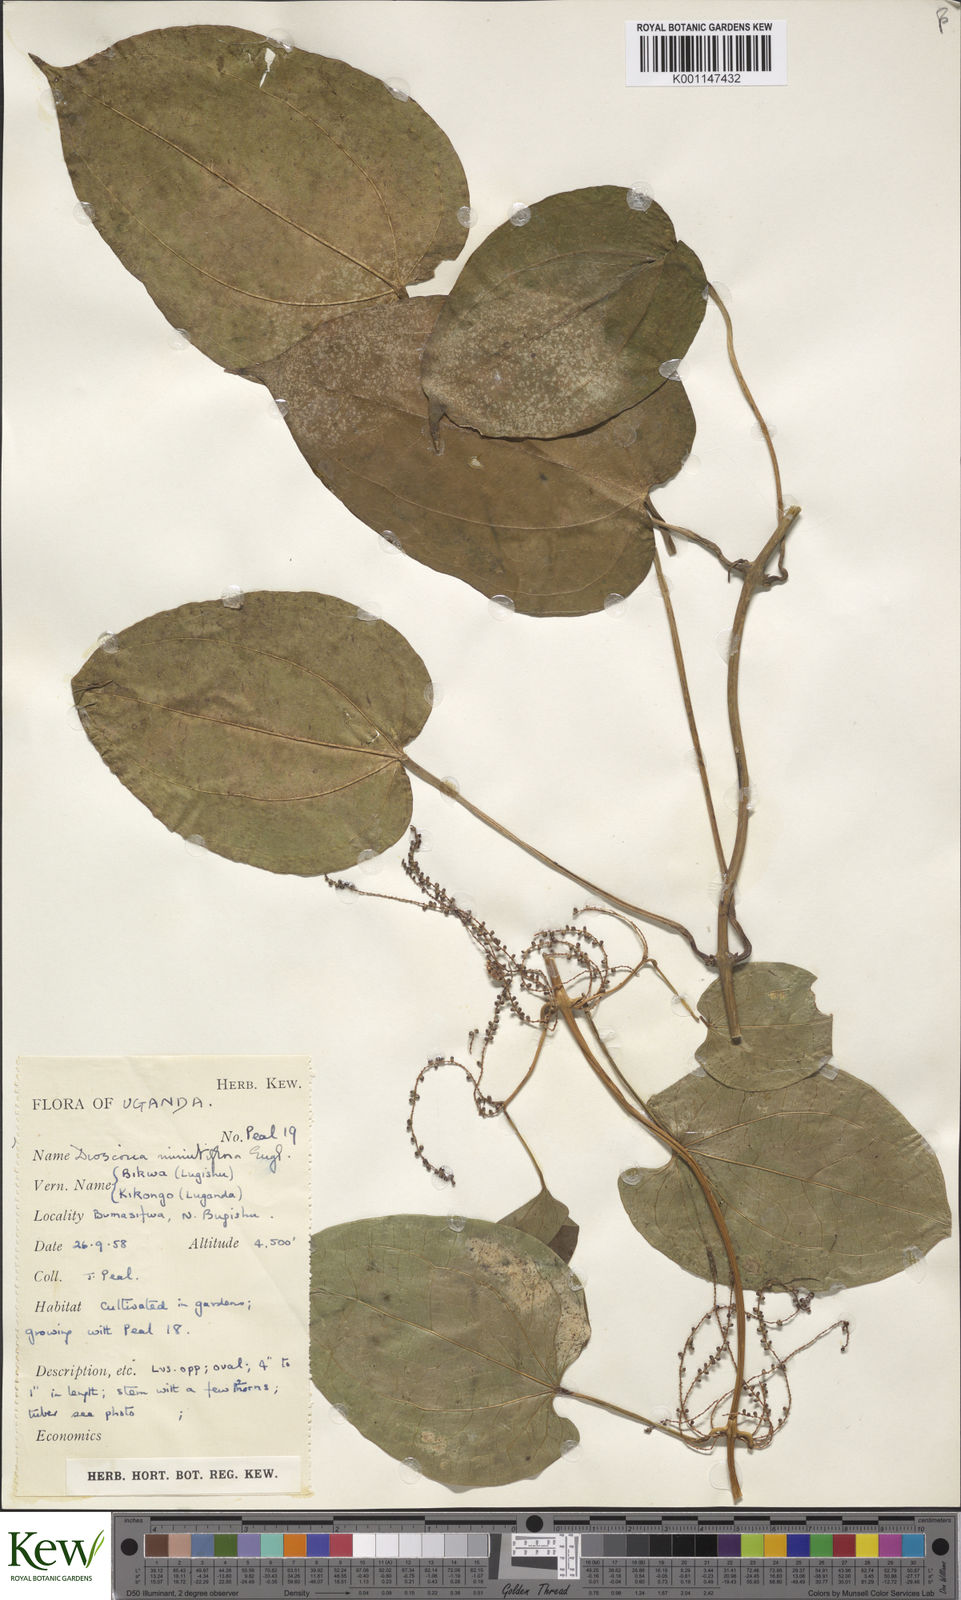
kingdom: Plantae
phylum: Tracheophyta
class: Liliopsida
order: Dioscoreales
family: Dioscoreaceae
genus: Dioscorea
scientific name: Dioscorea minutiflora
